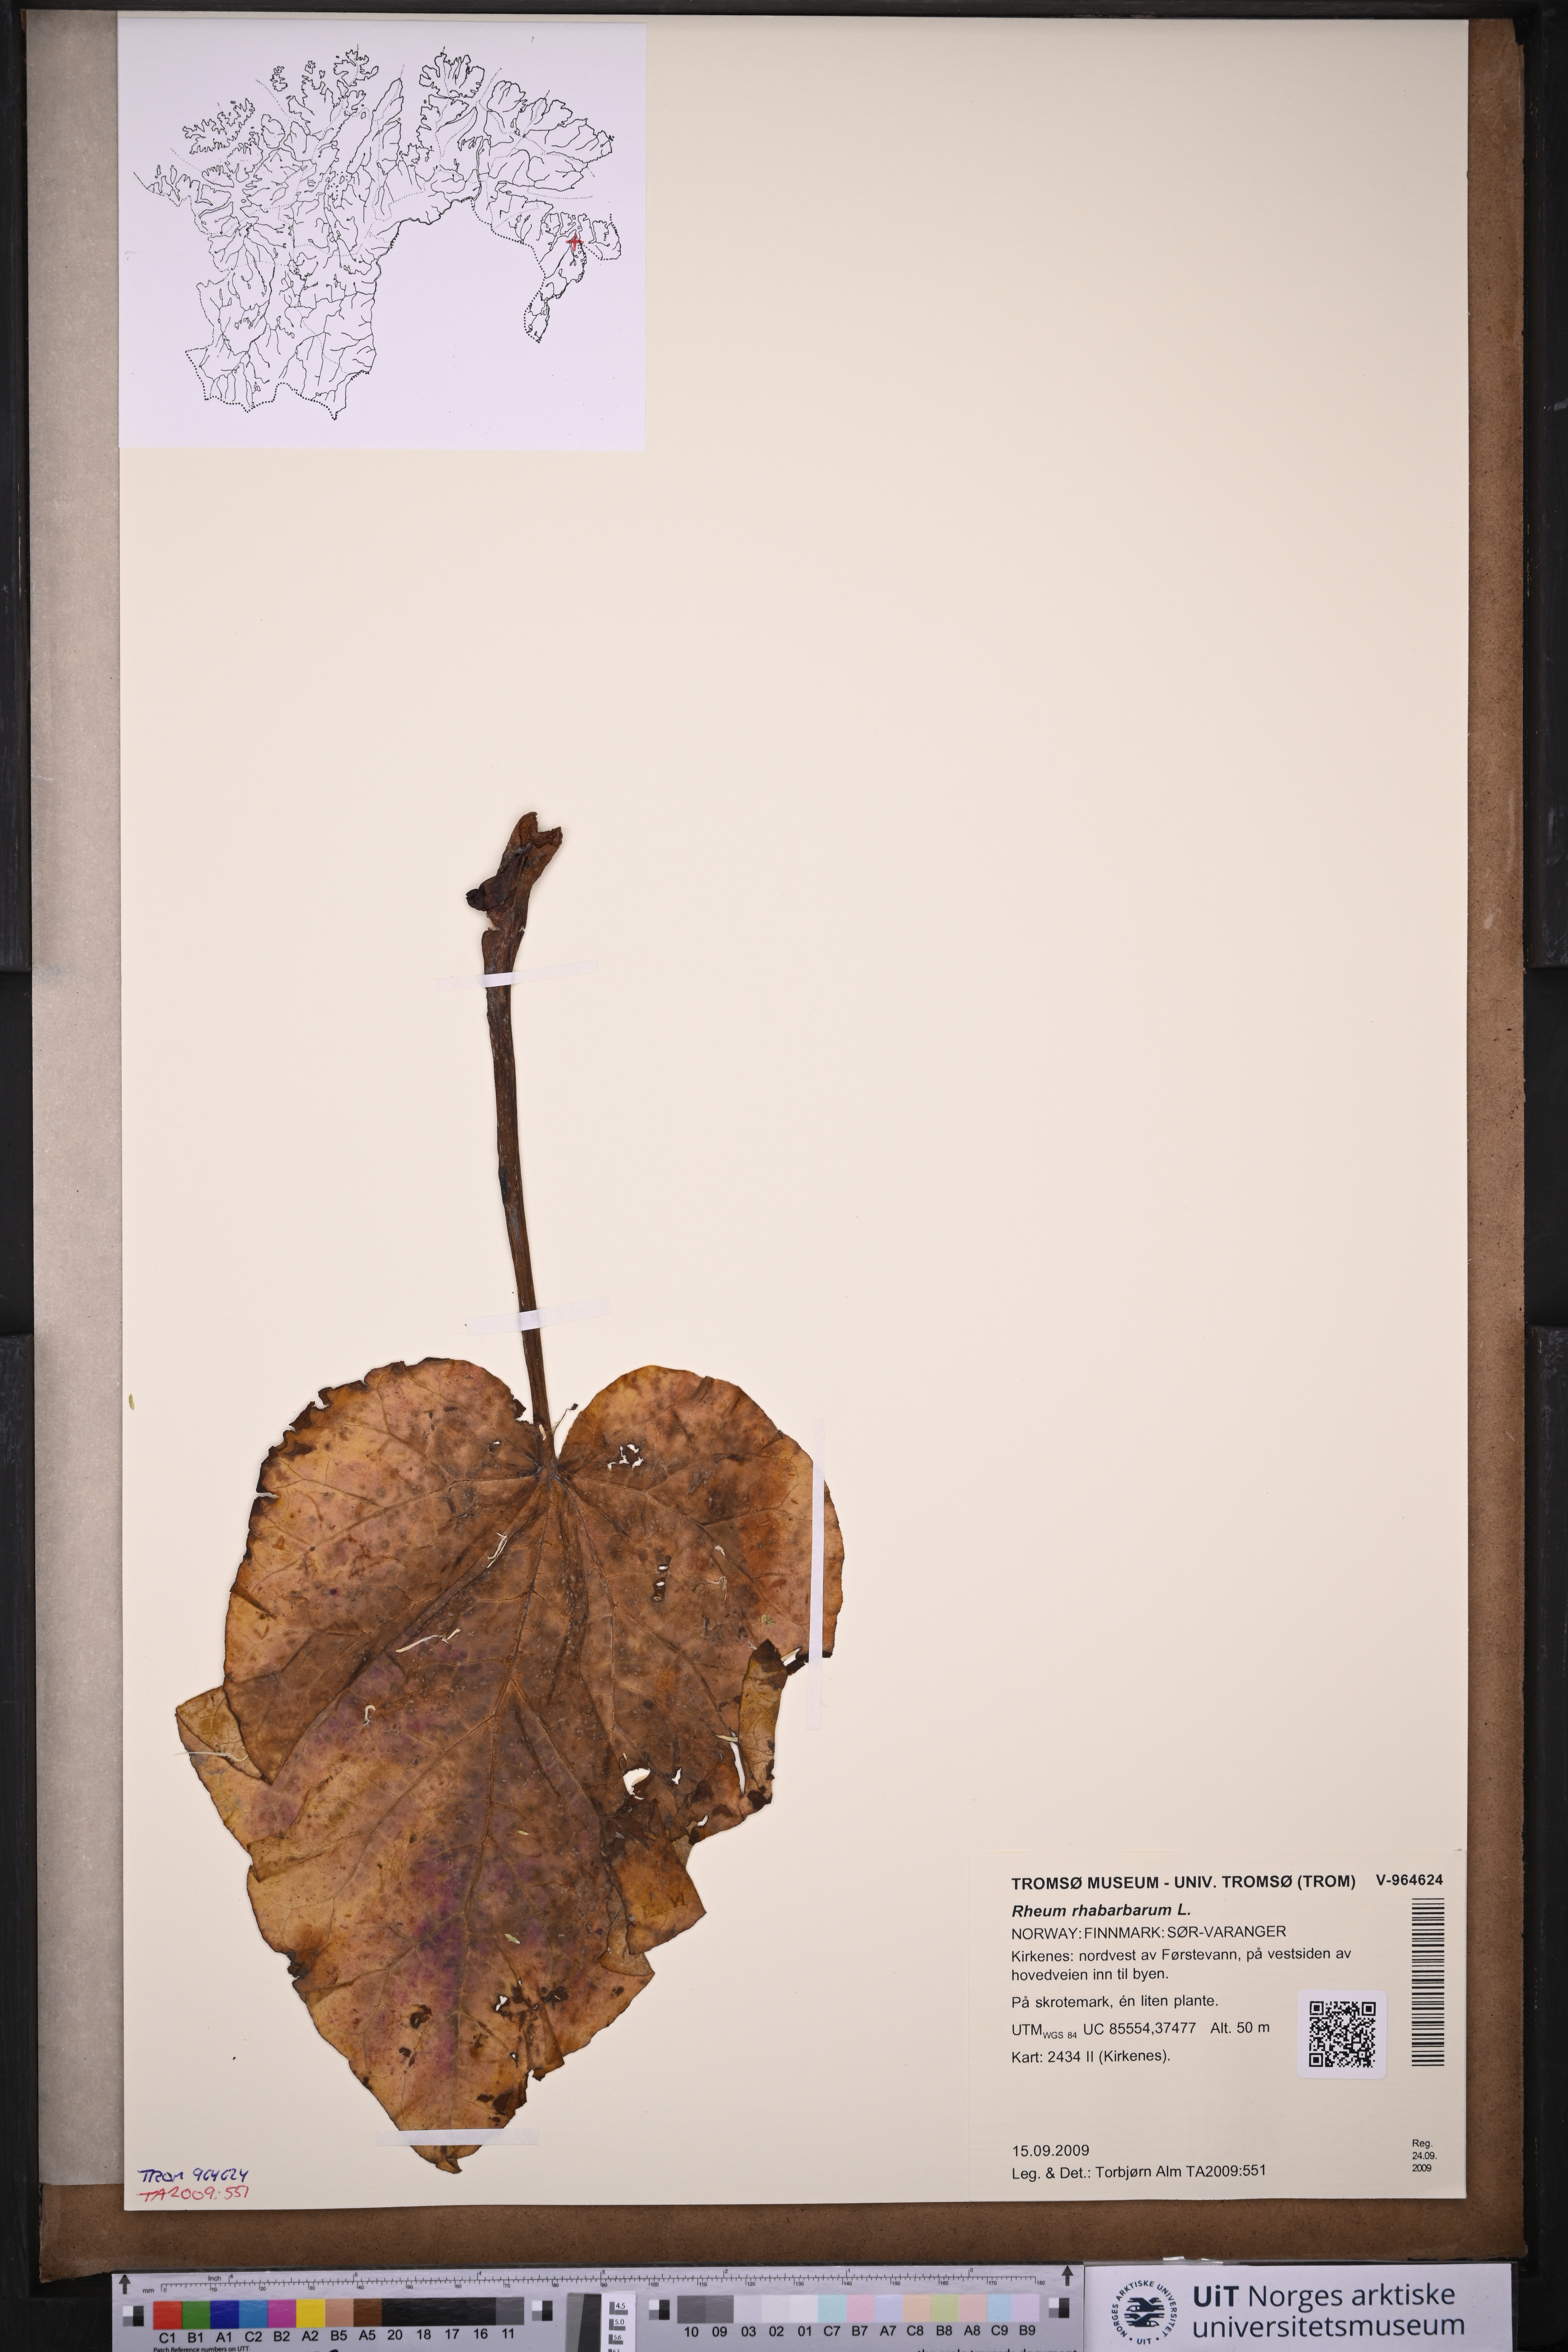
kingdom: Plantae
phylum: Tracheophyta
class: Magnoliopsida
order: Caryophyllales
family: Polygonaceae
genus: Rheum
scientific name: Rheum rhabarbarum
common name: Garden rhubarb
